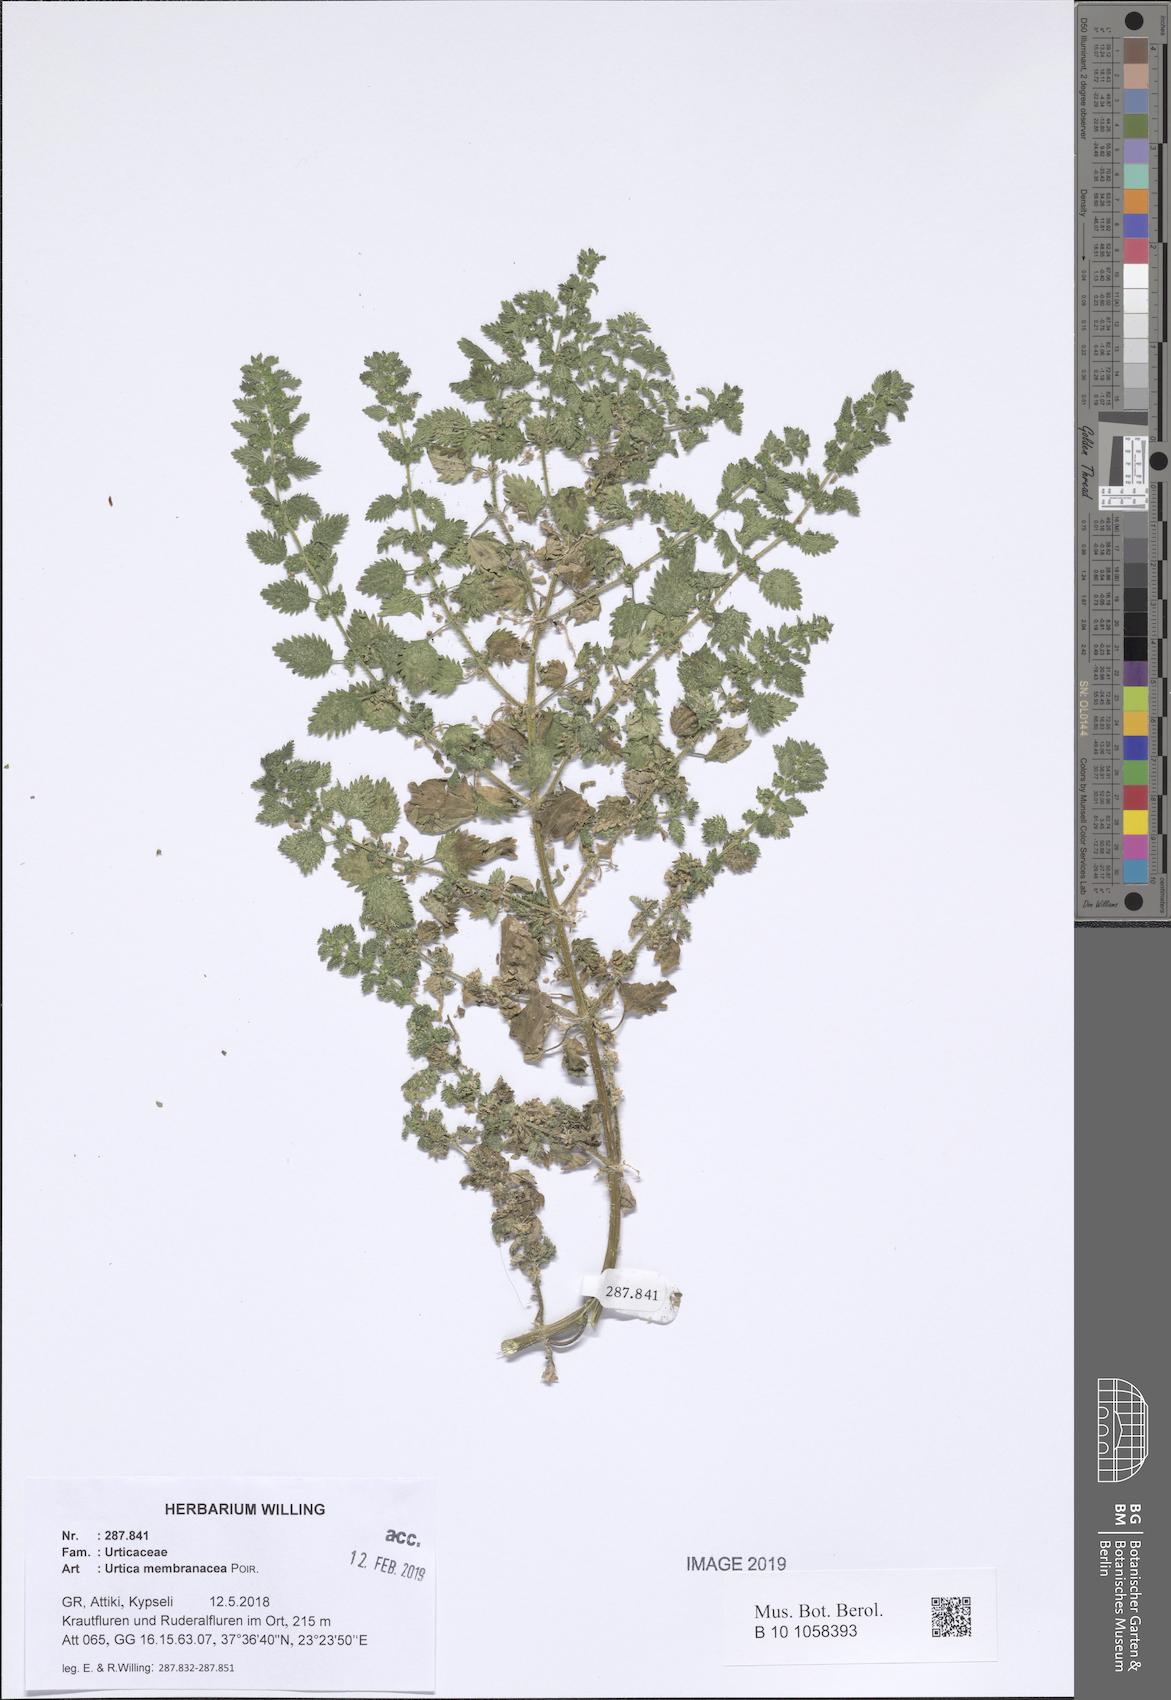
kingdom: Plantae
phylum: Tracheophyta
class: Magnoliopsida
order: Rosales
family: Urticaceae
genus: Urtica
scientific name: Urtica membranacea
